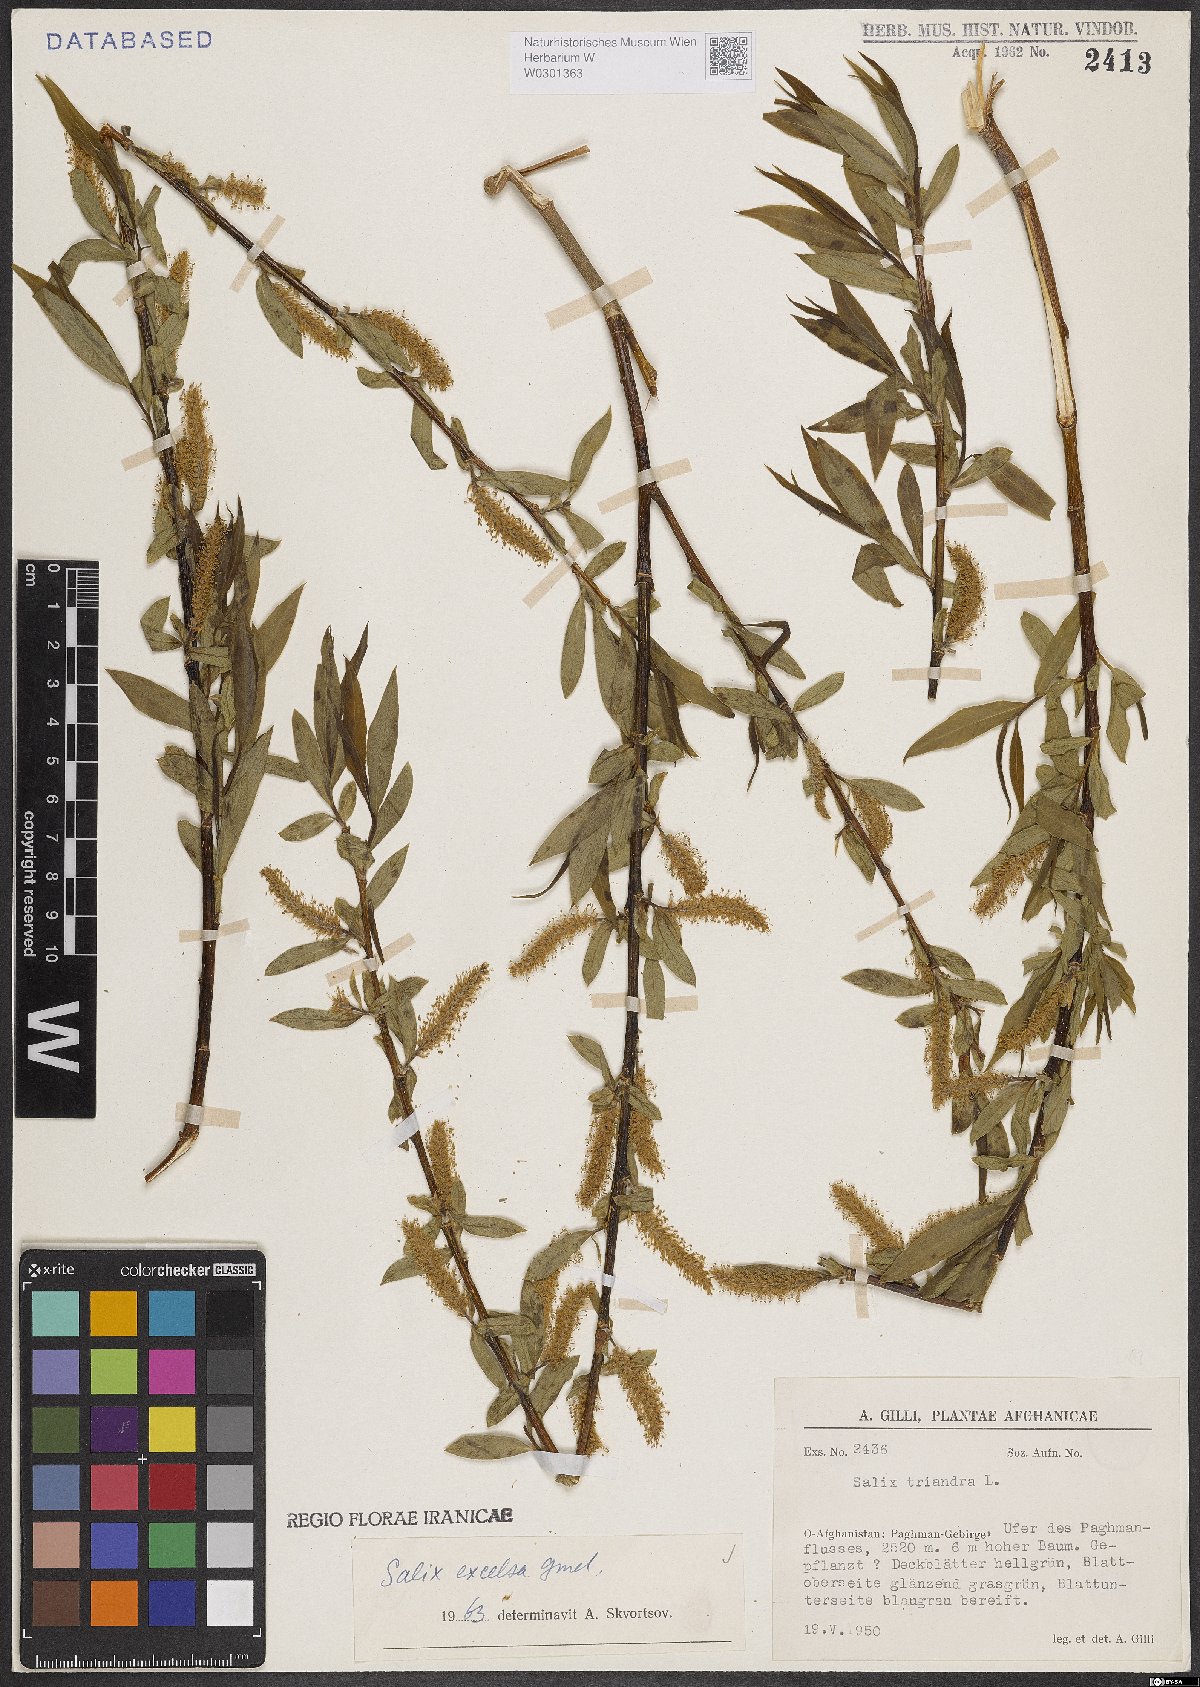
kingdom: Plantae
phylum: Tracheophyta
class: Magnoliopsida
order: Malpighiales
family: Salicaceae
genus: Salix
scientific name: Salix excelsa
